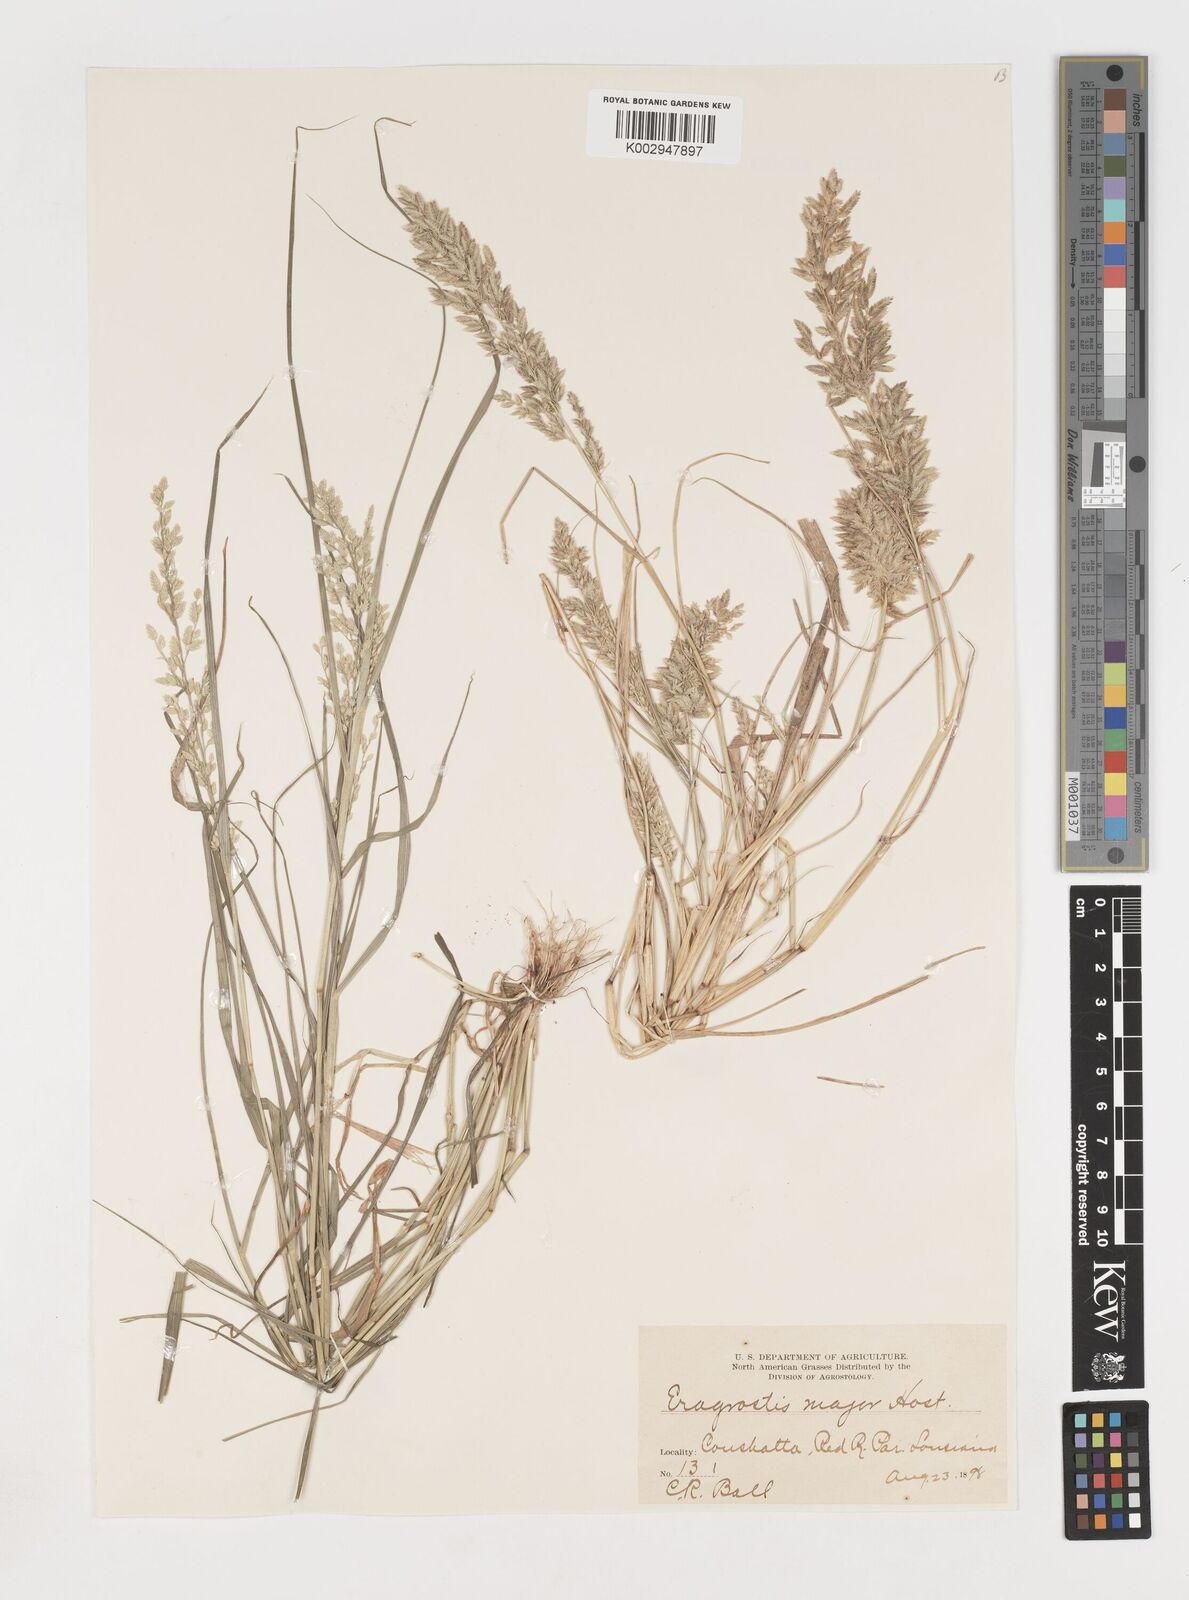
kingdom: Plantae
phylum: Tracheophyta
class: Liliopsida
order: Poales
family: Poaceae
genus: Eragrostis
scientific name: Eragrostis cilianensis
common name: Stinkgrass
